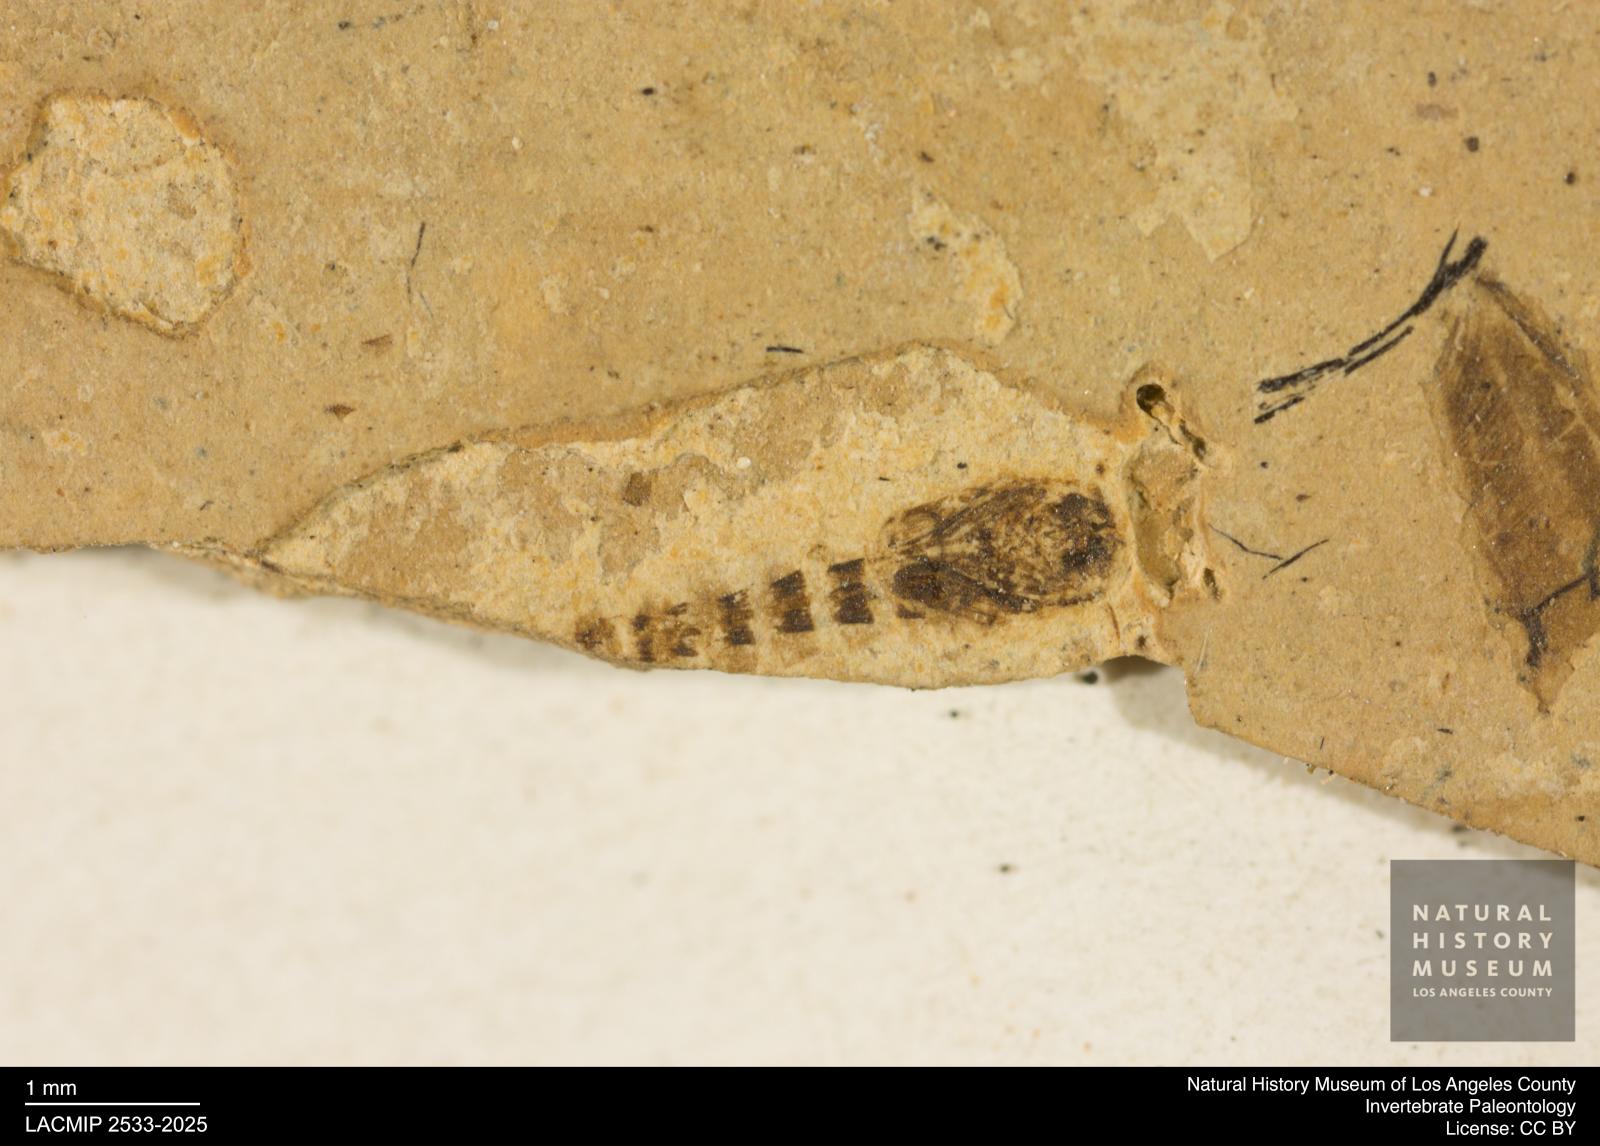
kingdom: Animalia
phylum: Arthropoda
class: Insecta
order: Diptera
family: Ceratopogonidae
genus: Ceratopogon
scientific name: Ceratopogon
